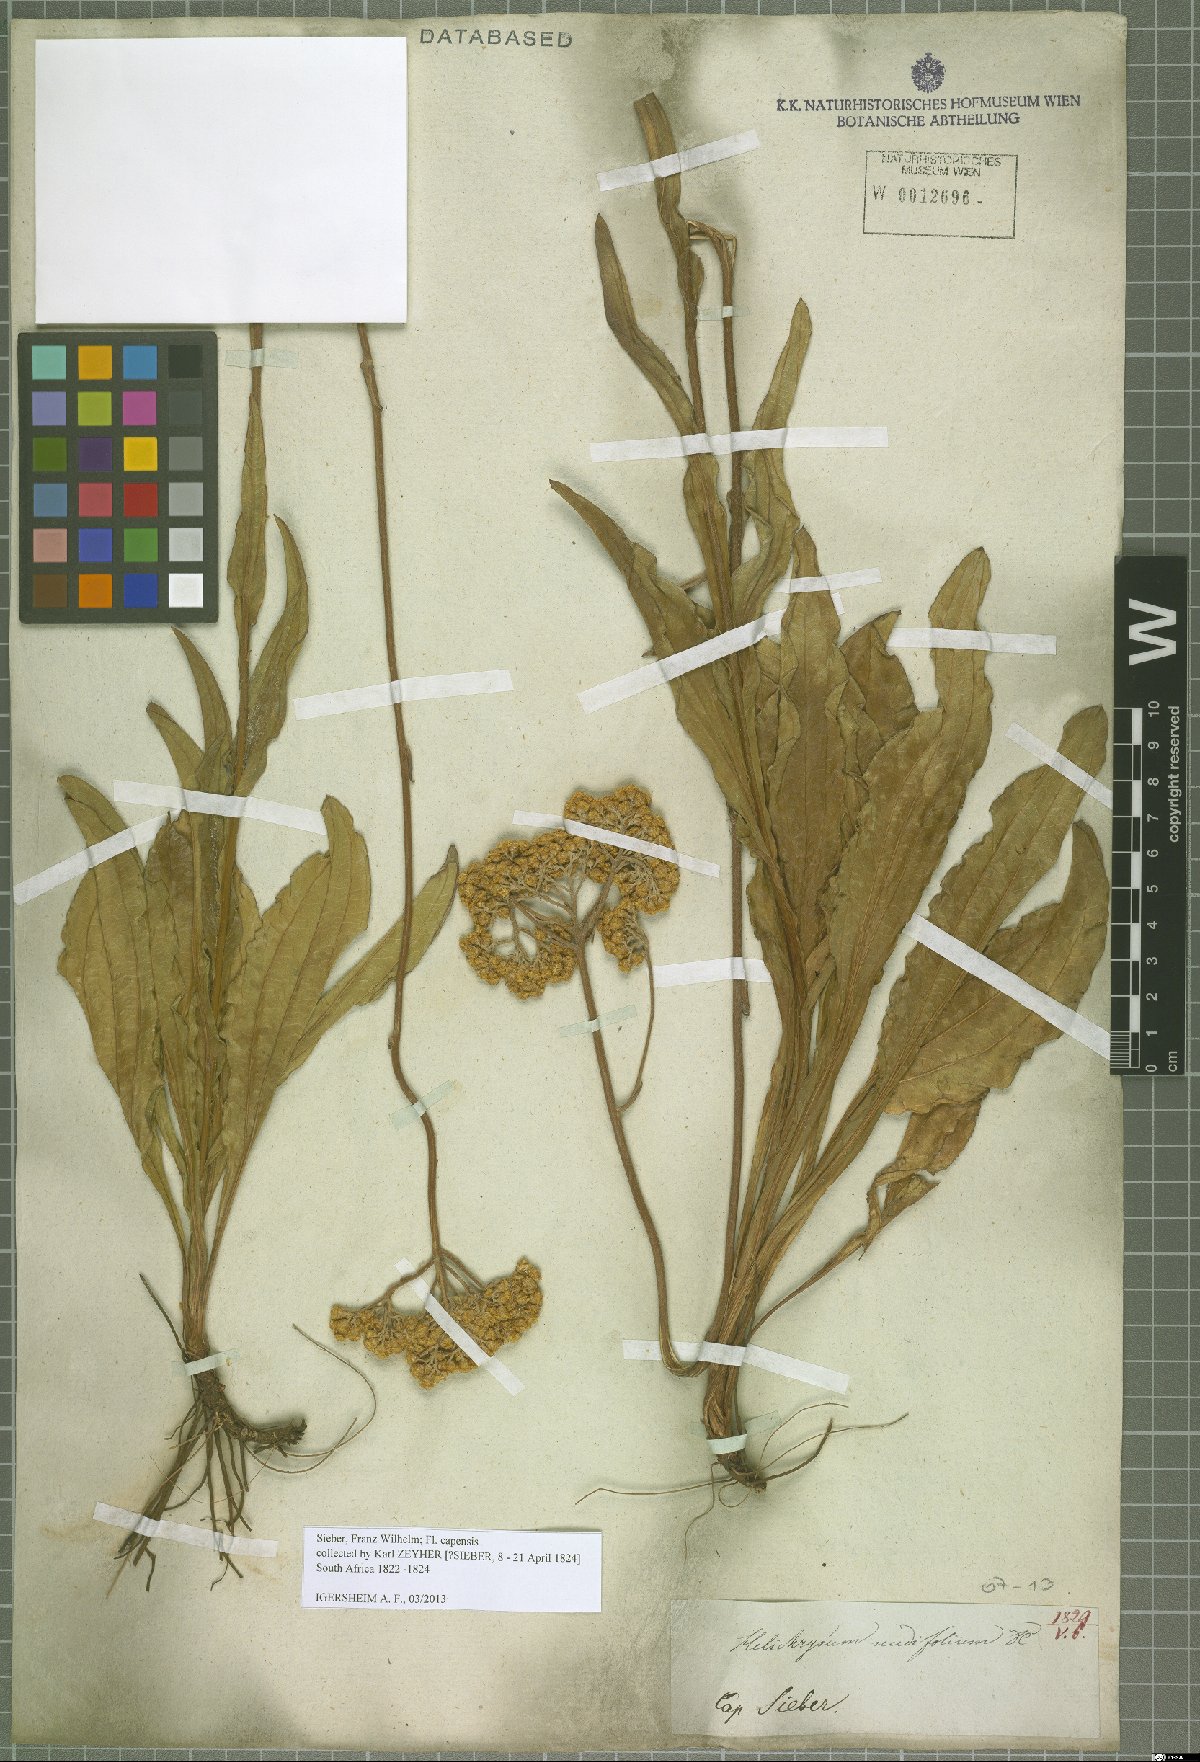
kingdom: Plantae
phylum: Tracheophyta
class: Magnoliopsida
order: Asterales
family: Asteraceae
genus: Helichrysum
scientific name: Helichrysum nudifolium
